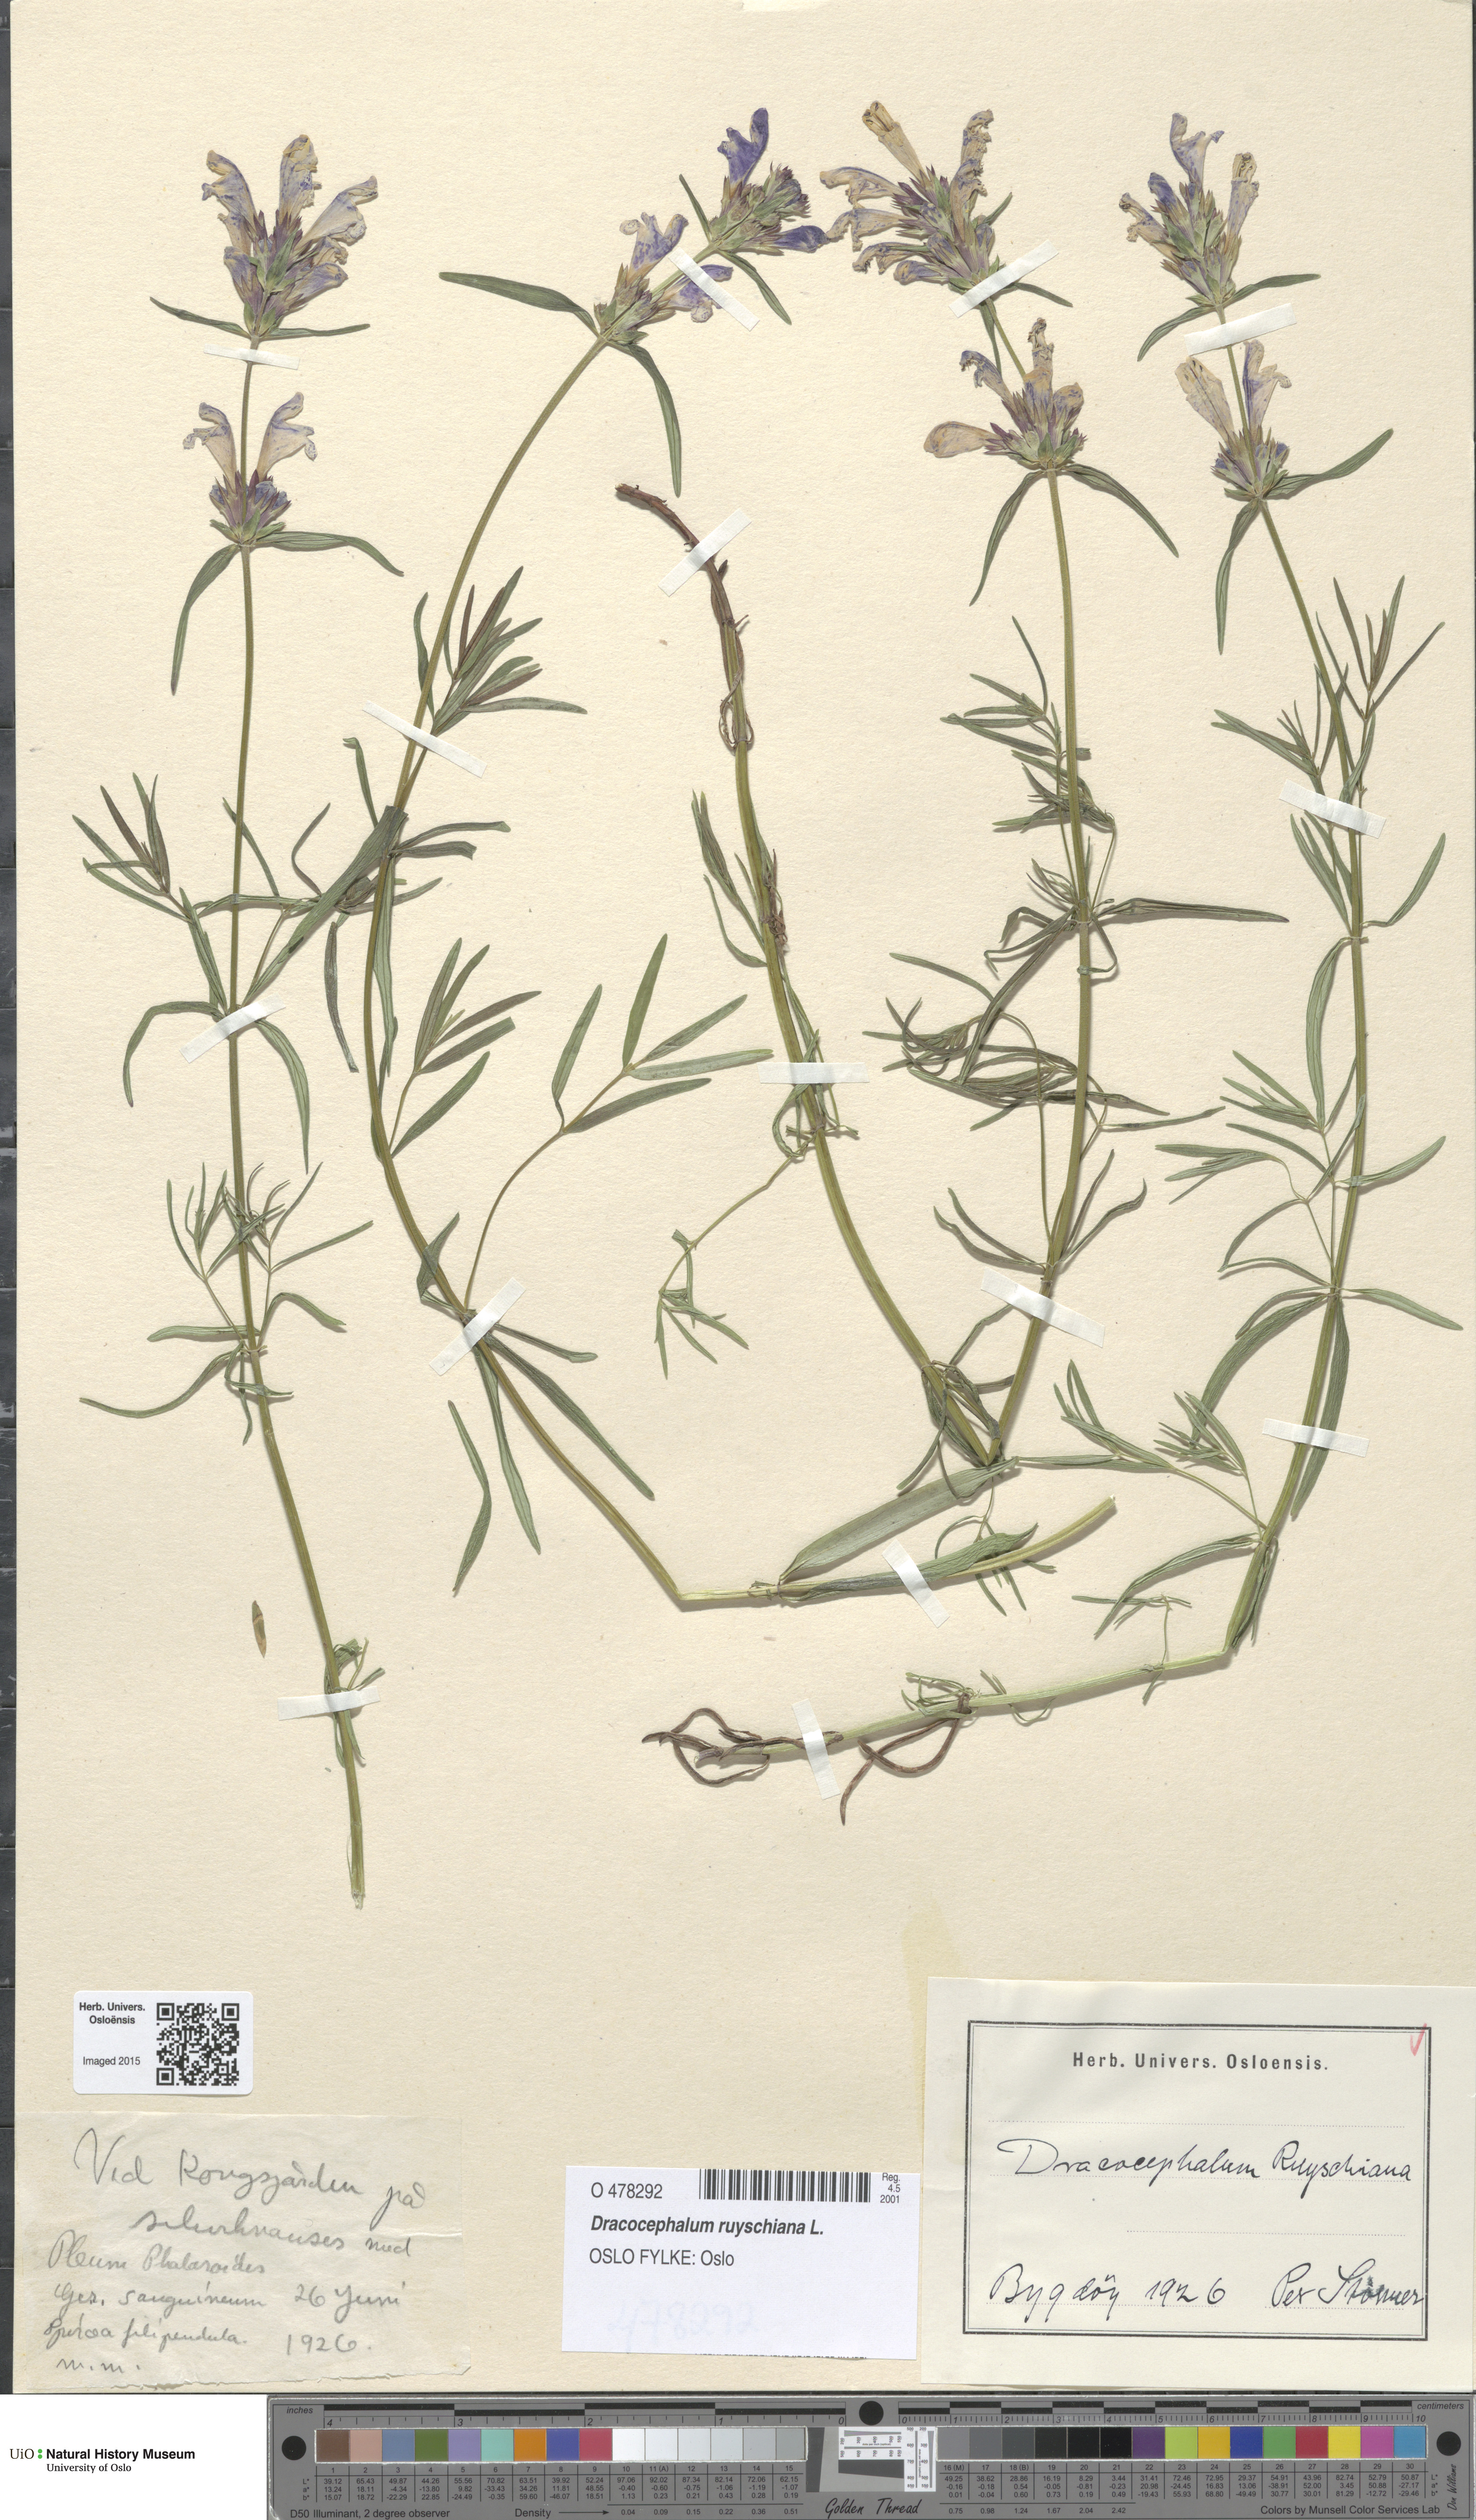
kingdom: Plantae
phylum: Tracheophyta
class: Magnoliopsida
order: Lamiales
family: Lamiaceae
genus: Dracocephalum
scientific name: Dracocephalum ruyschiana
